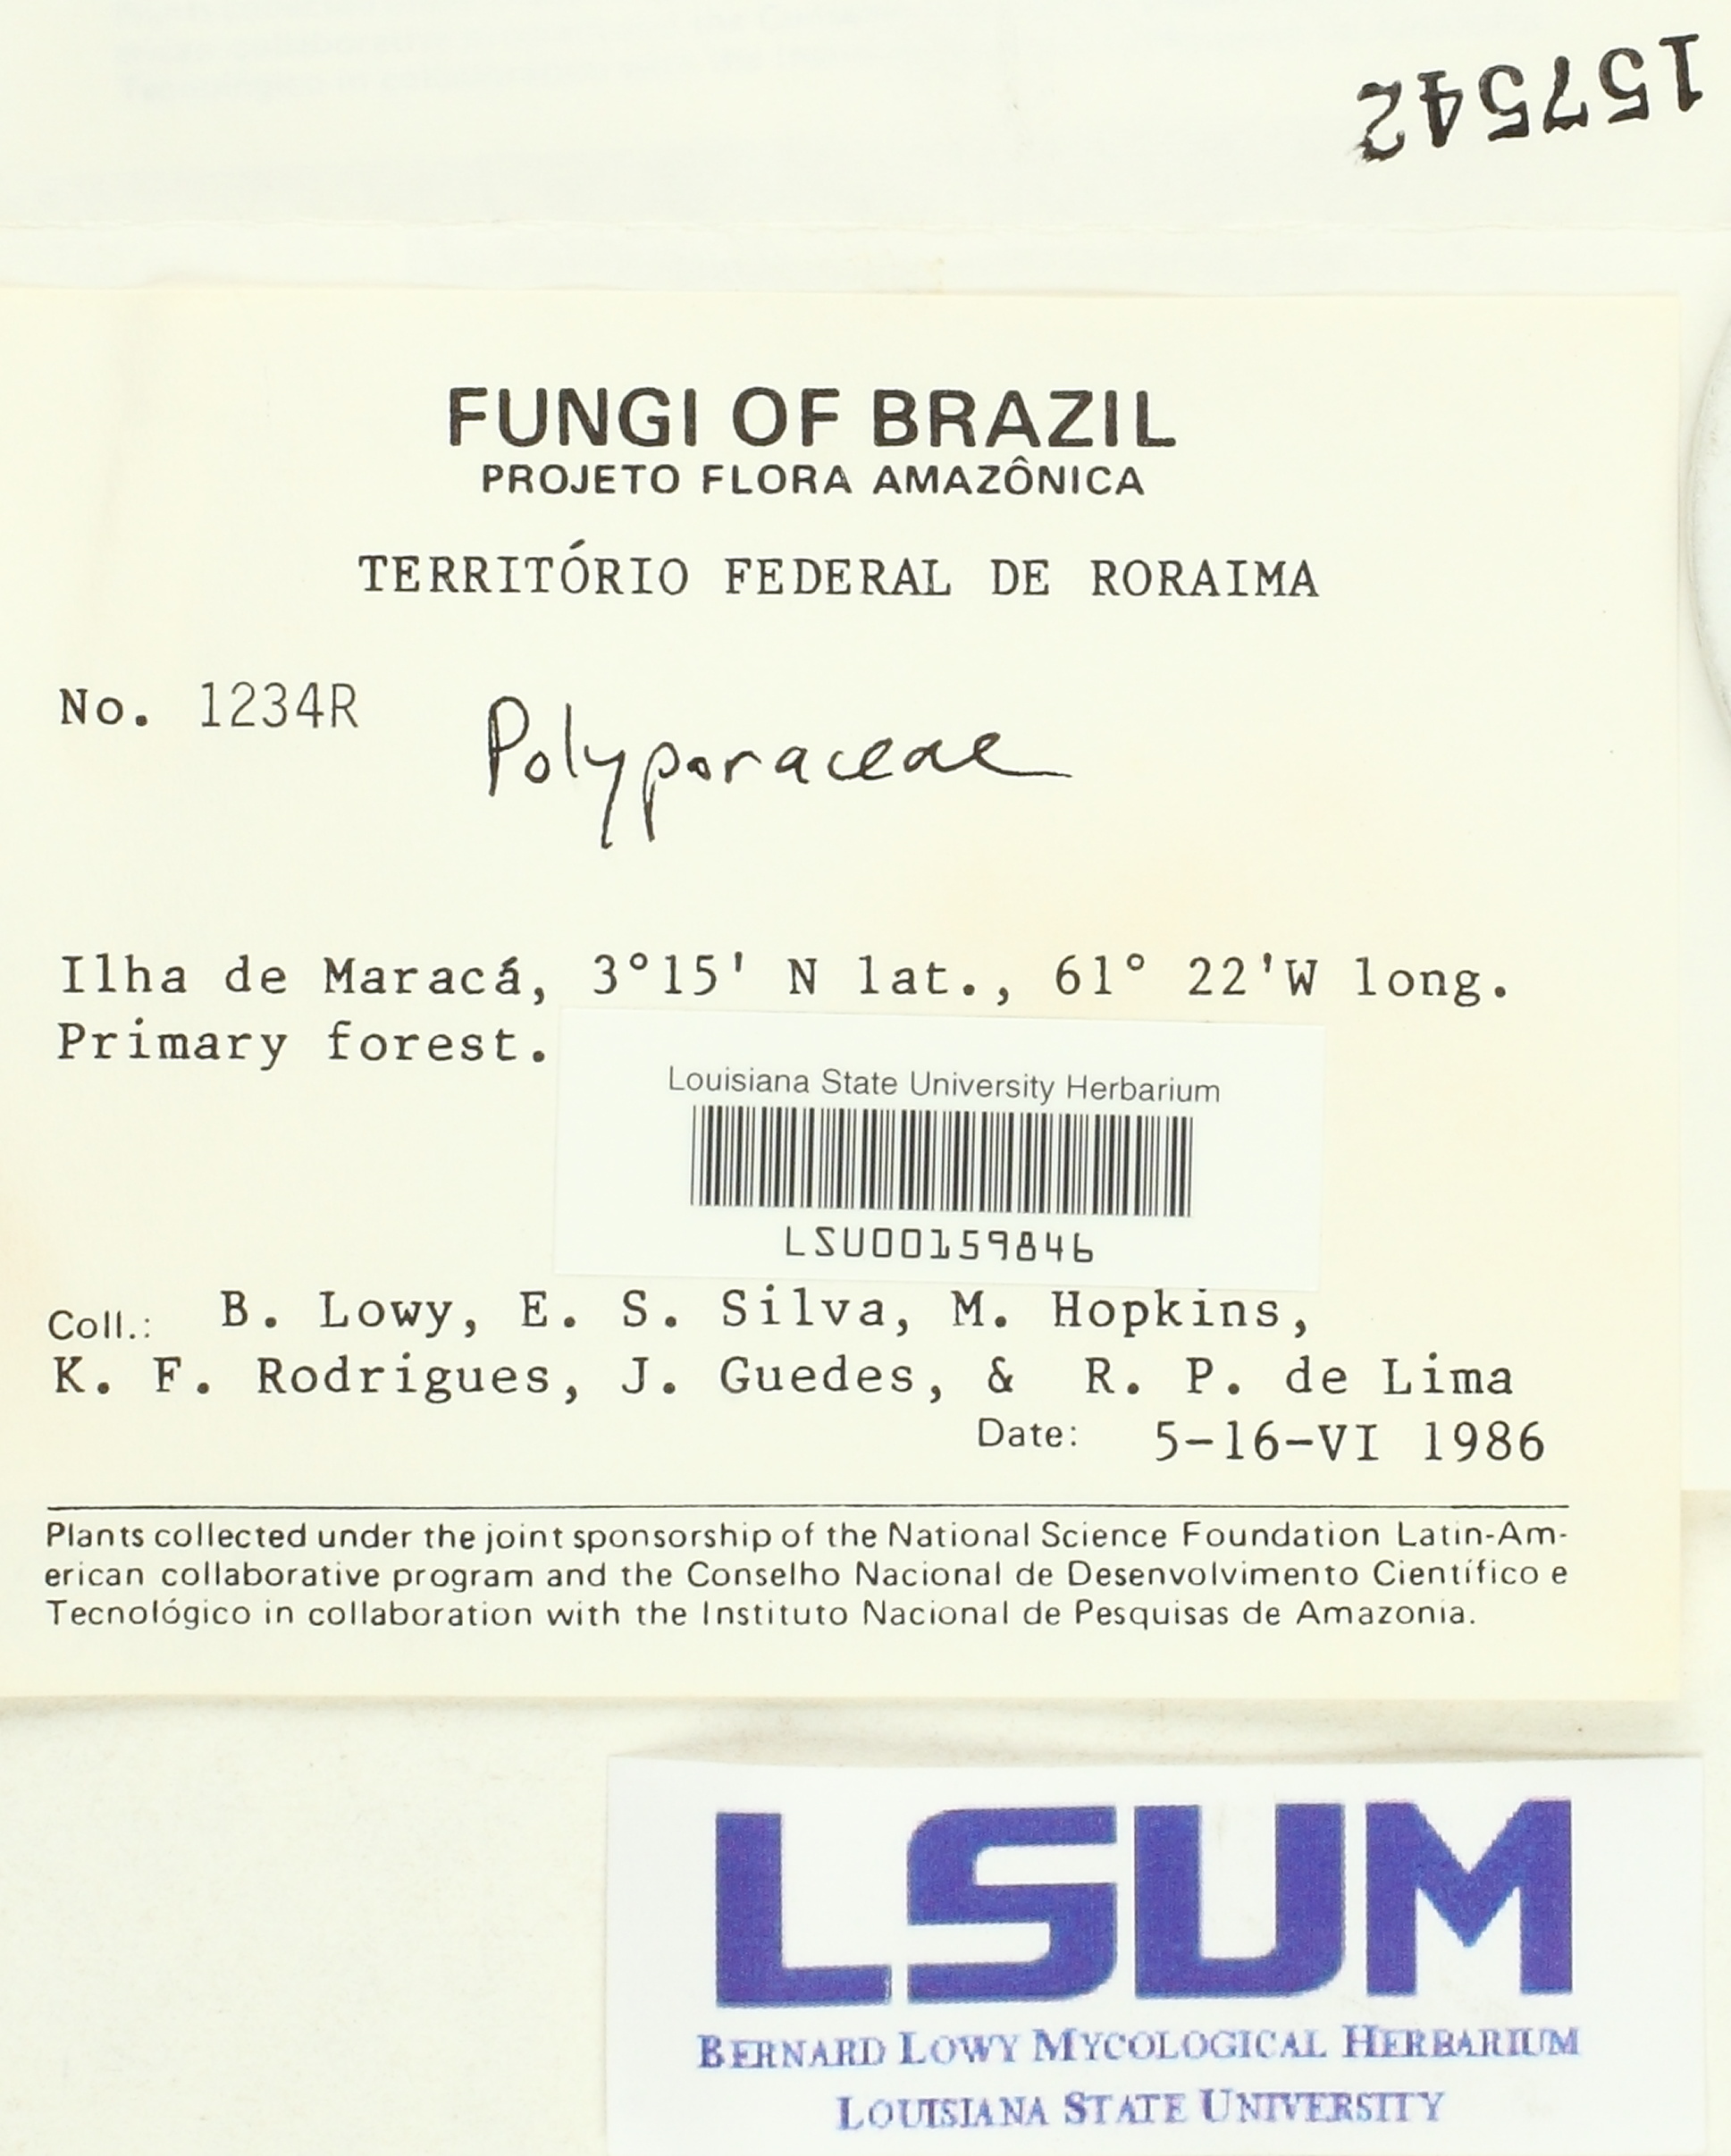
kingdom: Fungi
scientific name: Fungi
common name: Fungi
